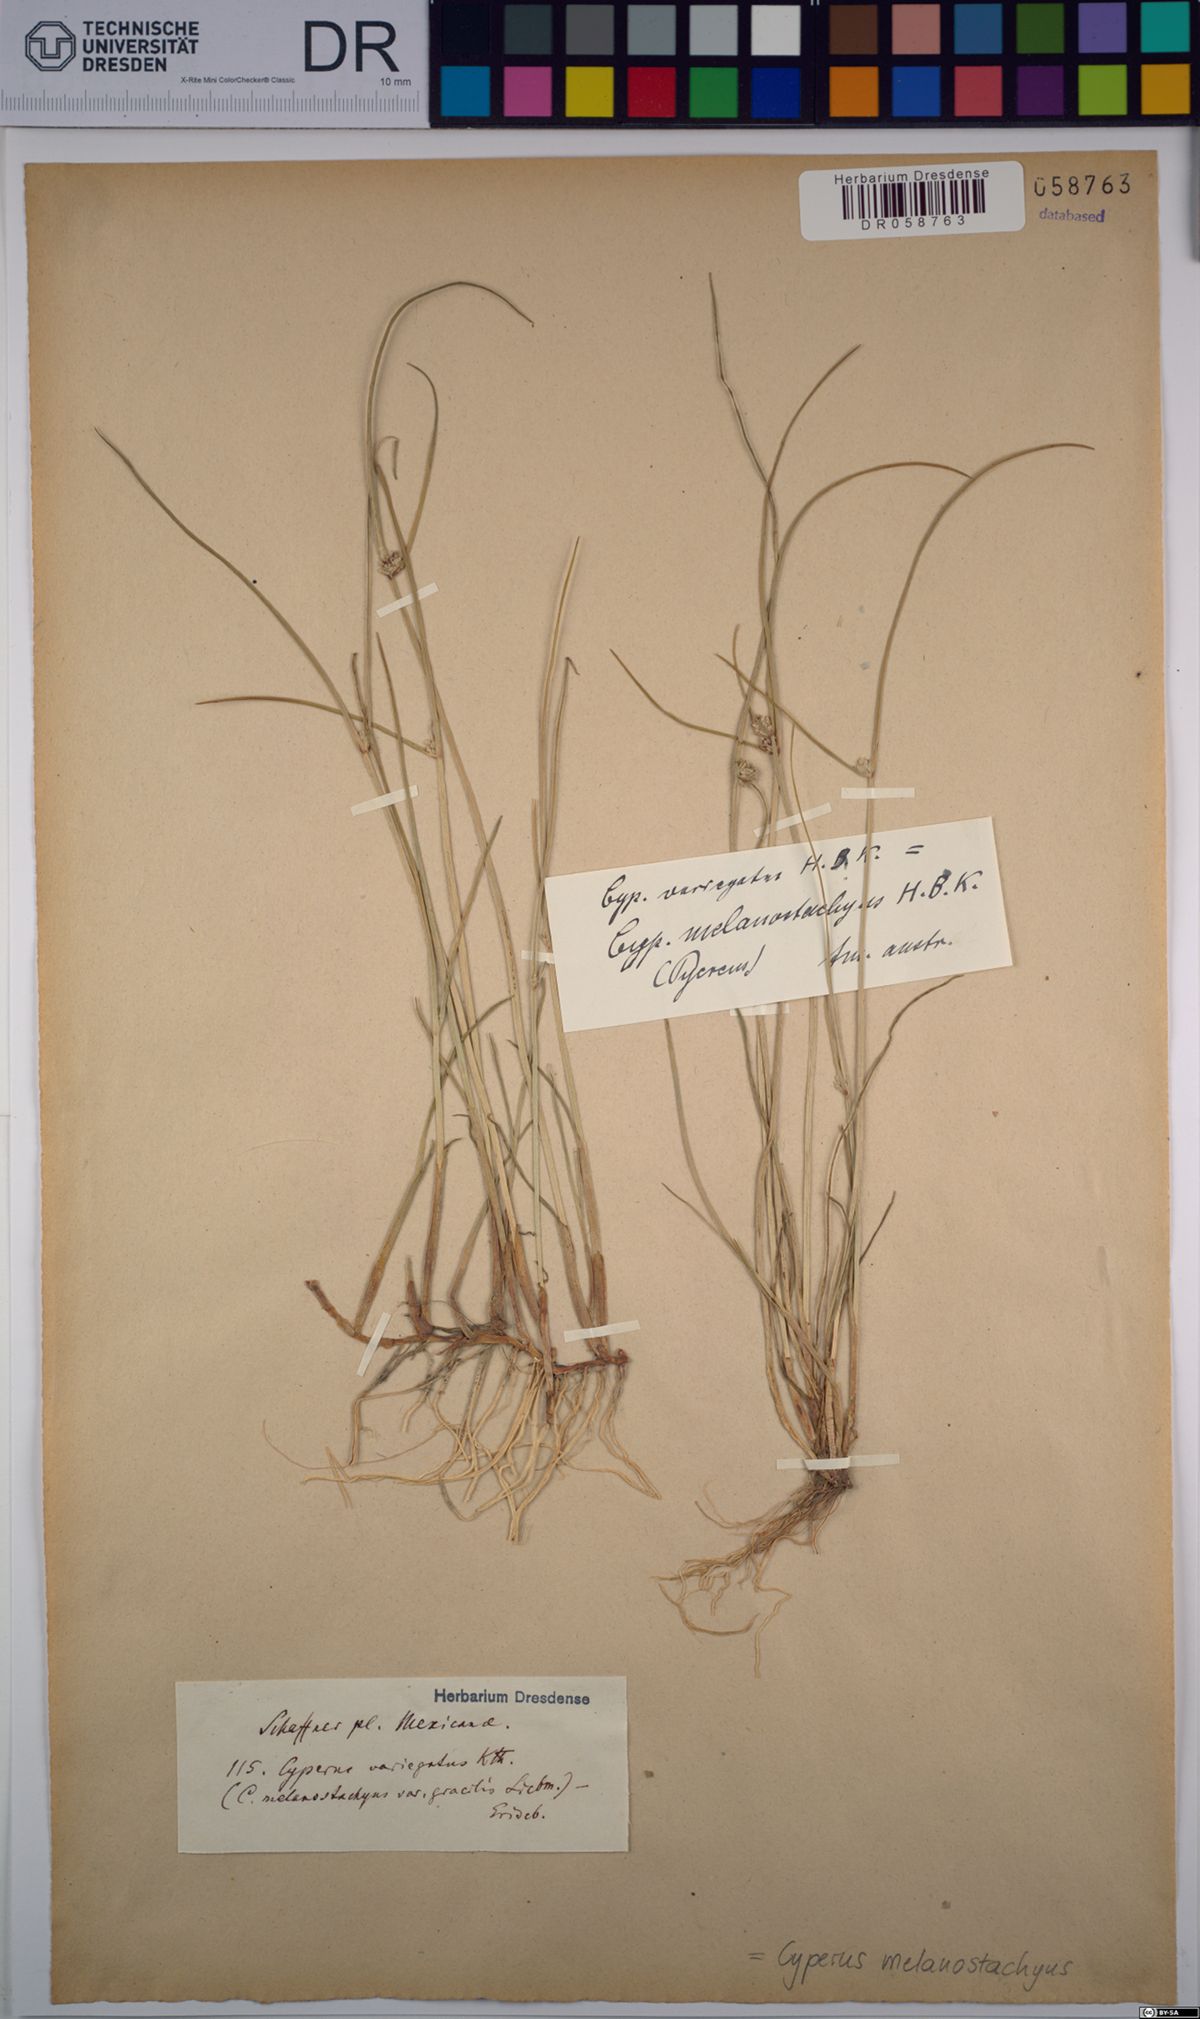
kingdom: Plantae
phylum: Tracheophyta
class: Liliopsida
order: Poales
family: Cyperaceae
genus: Cyperus
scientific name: Cyperus melanostachyus
